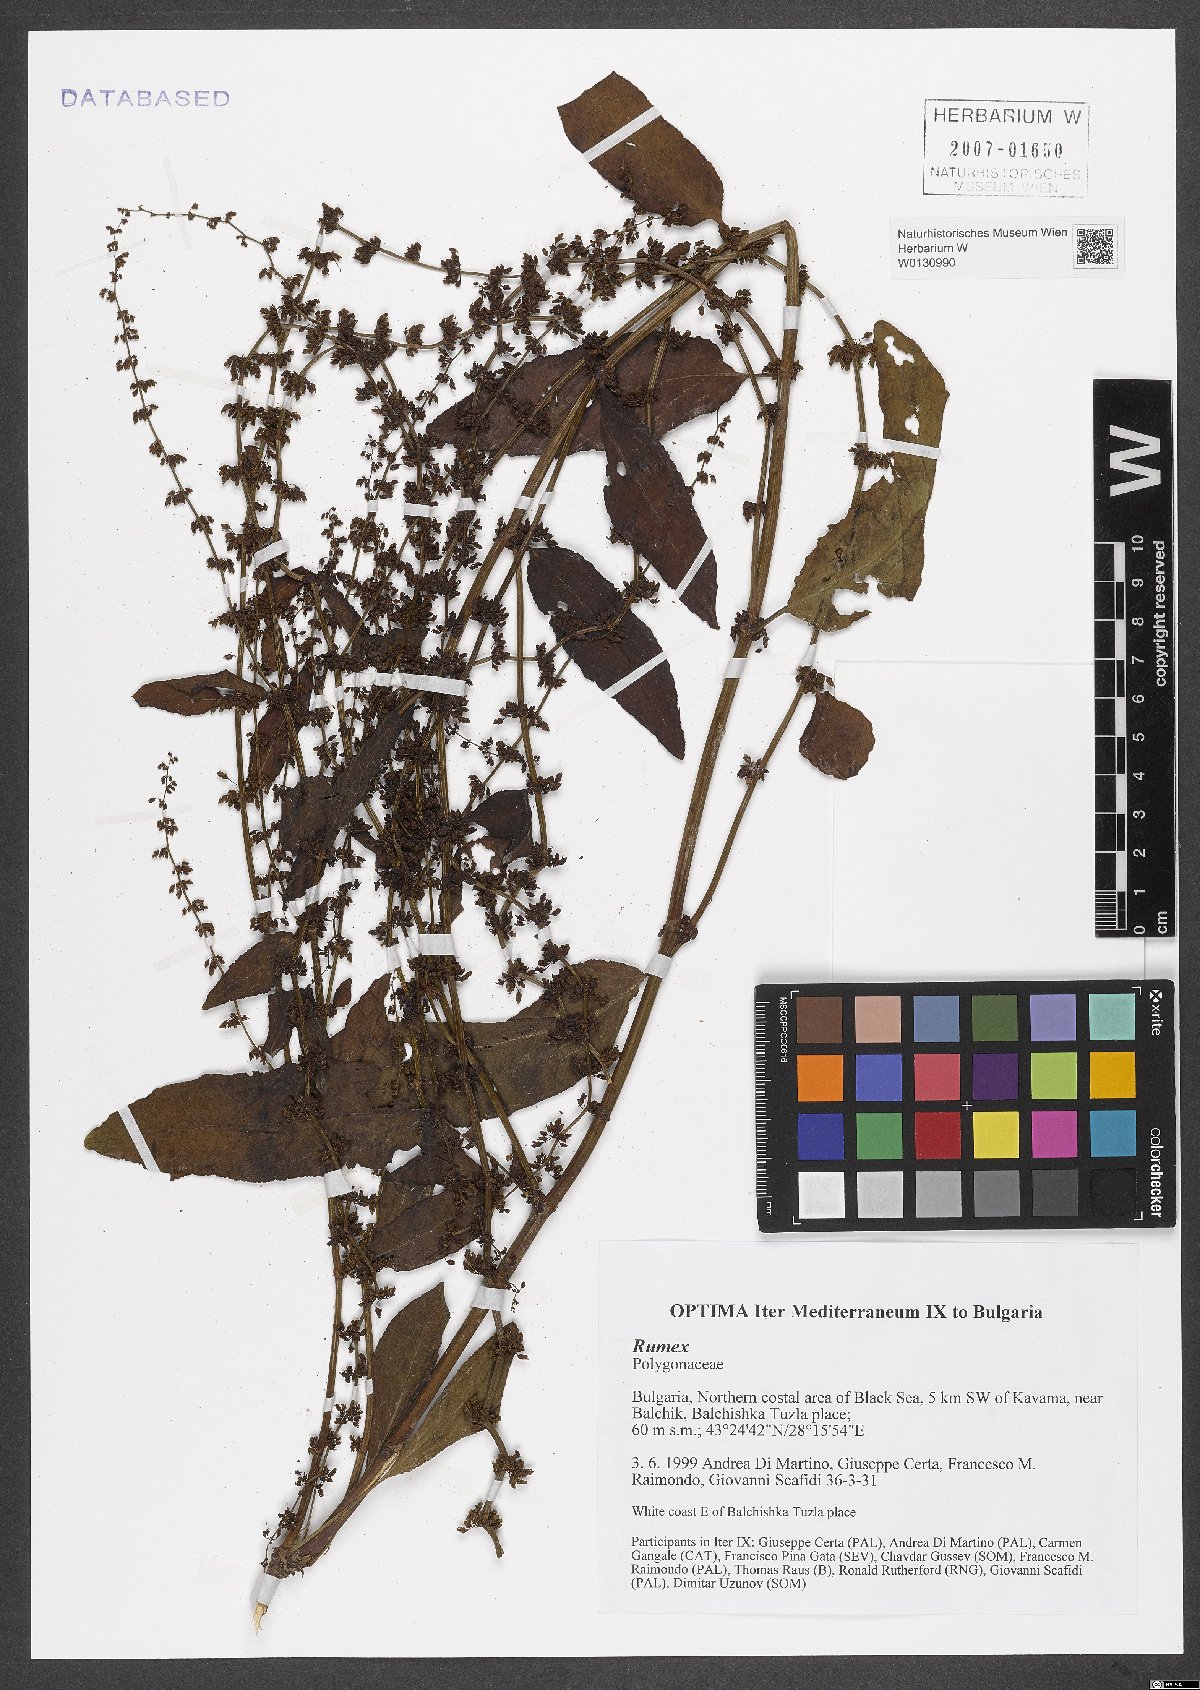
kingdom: Plantae
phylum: Tracheophyta
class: Magnoliopsida
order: Caryophyllales
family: Polygonaceae
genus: Rumex
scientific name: Rumex
